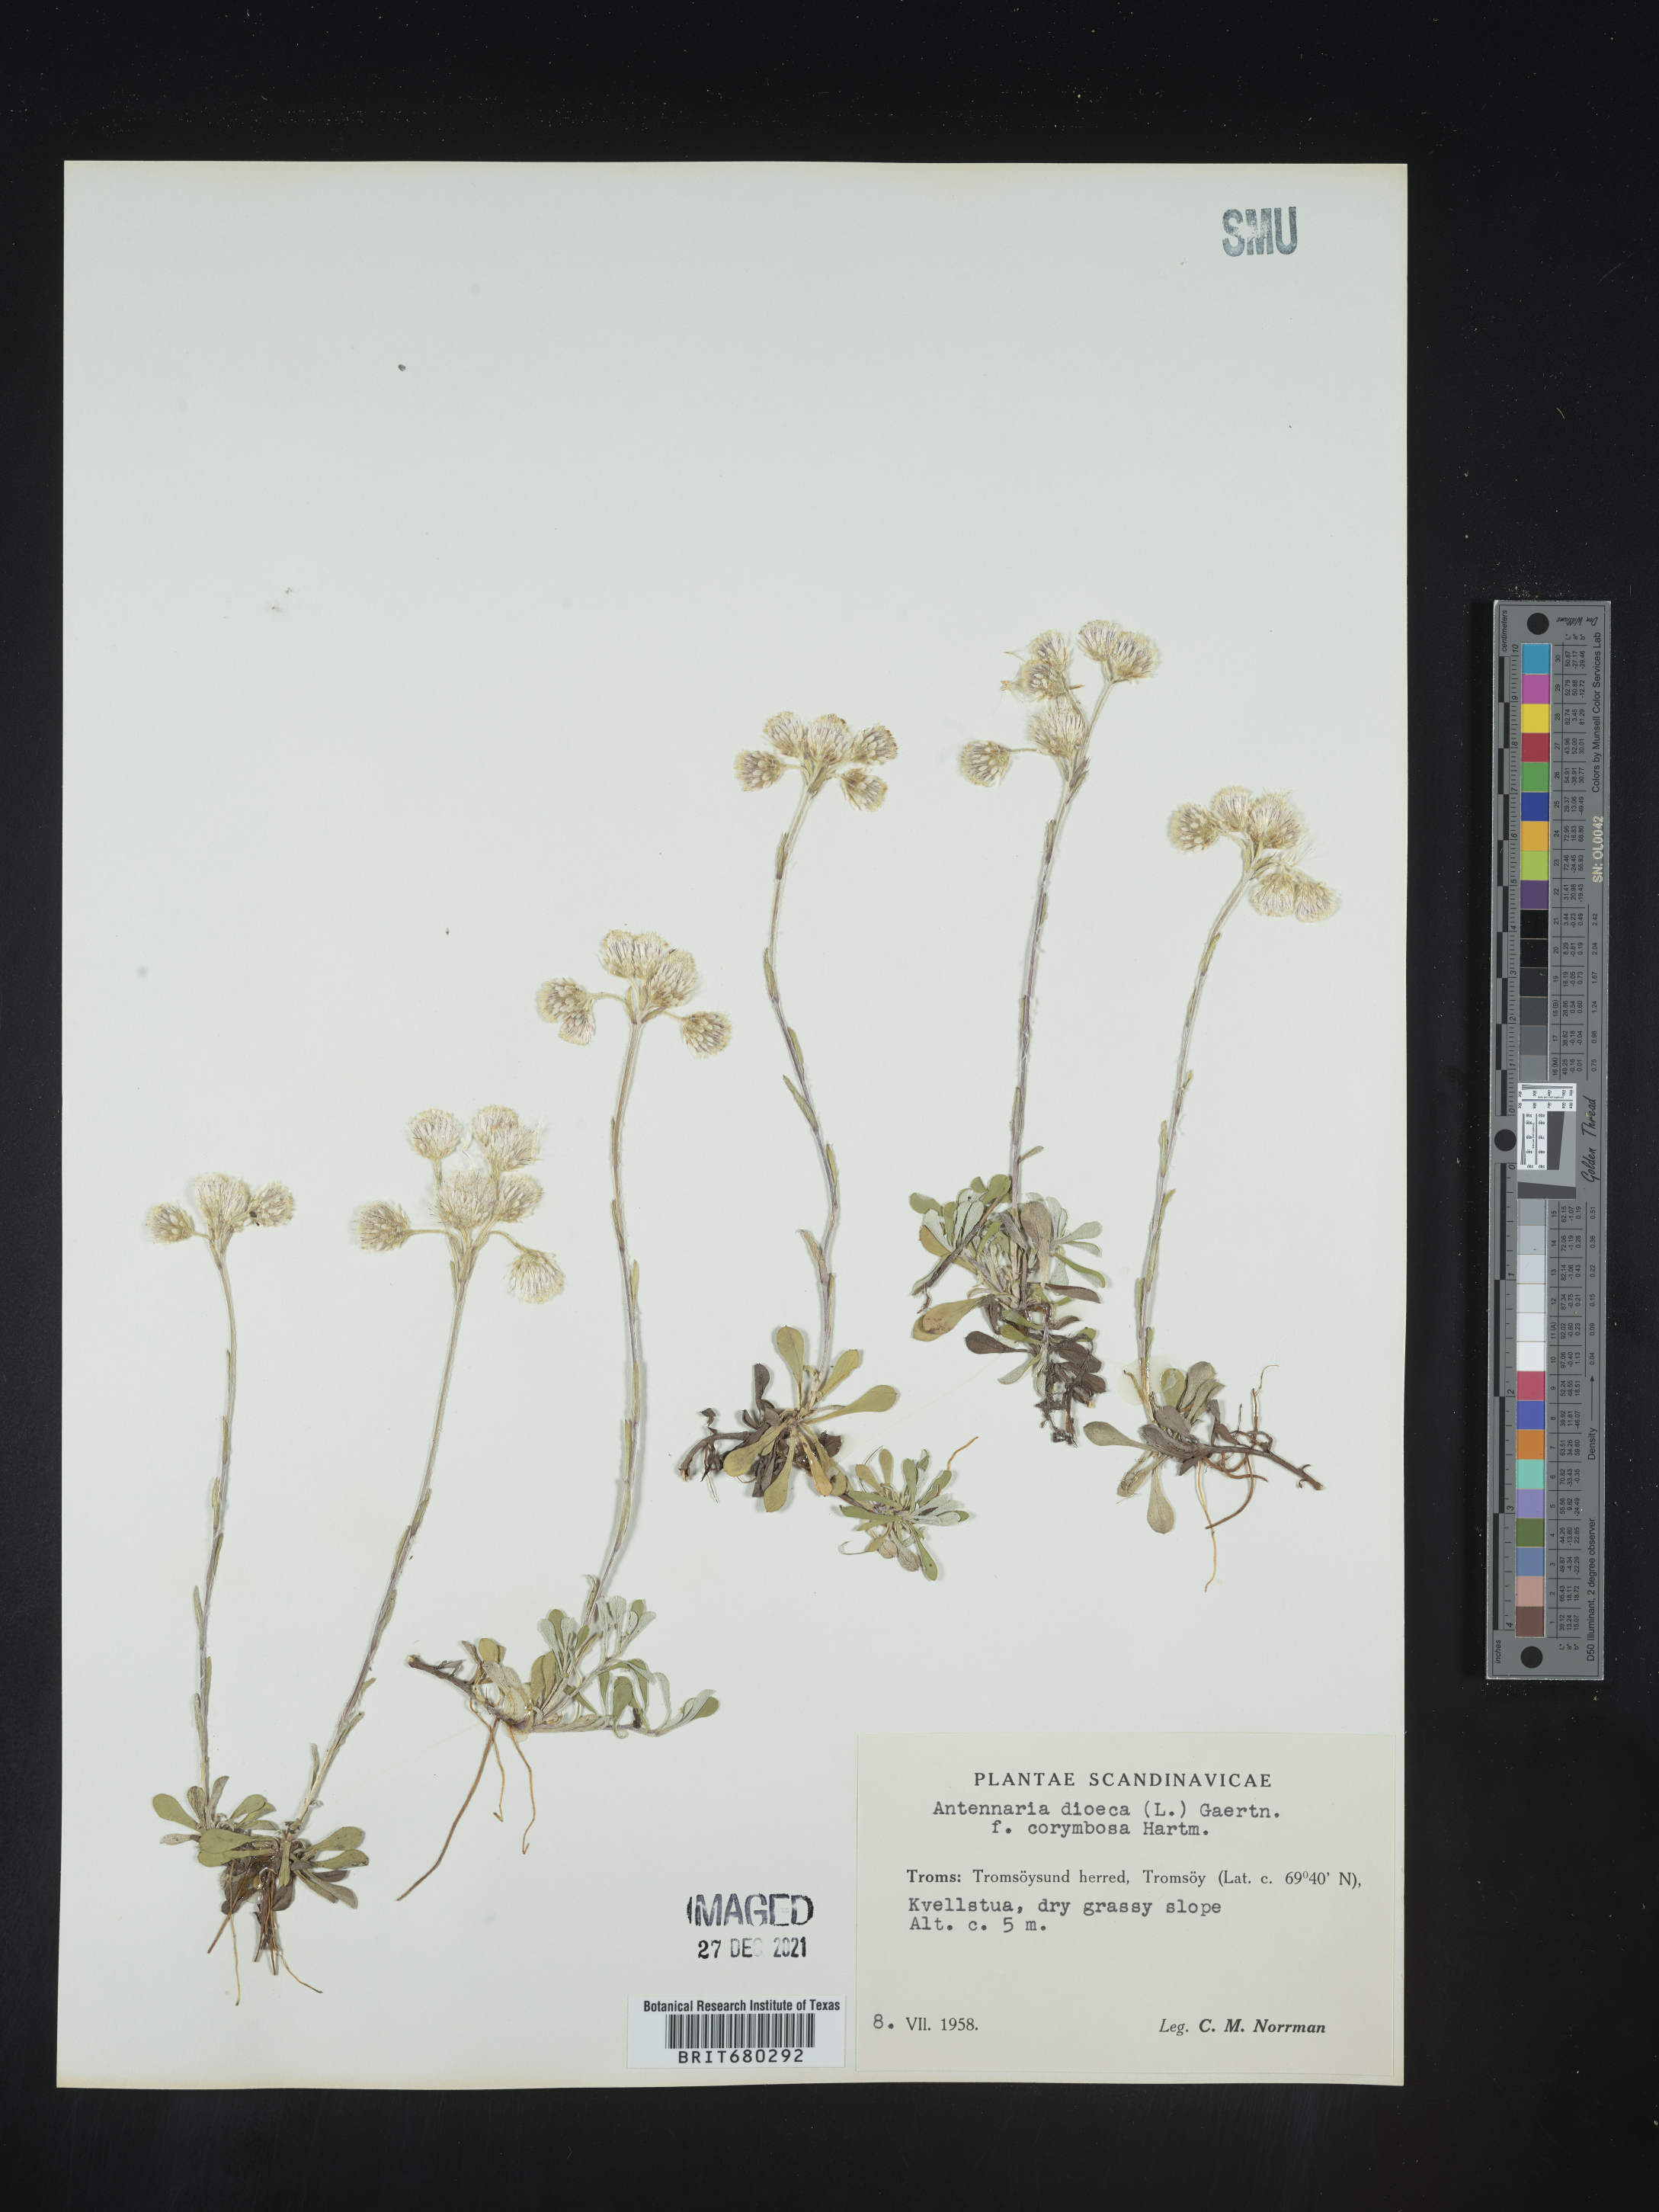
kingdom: Plantae
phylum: Tracheophyta
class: Magnoliopsida
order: Asterales
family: Asteraceae
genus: Antennaria
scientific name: Antennaria dioica
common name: Mountain everlasting
